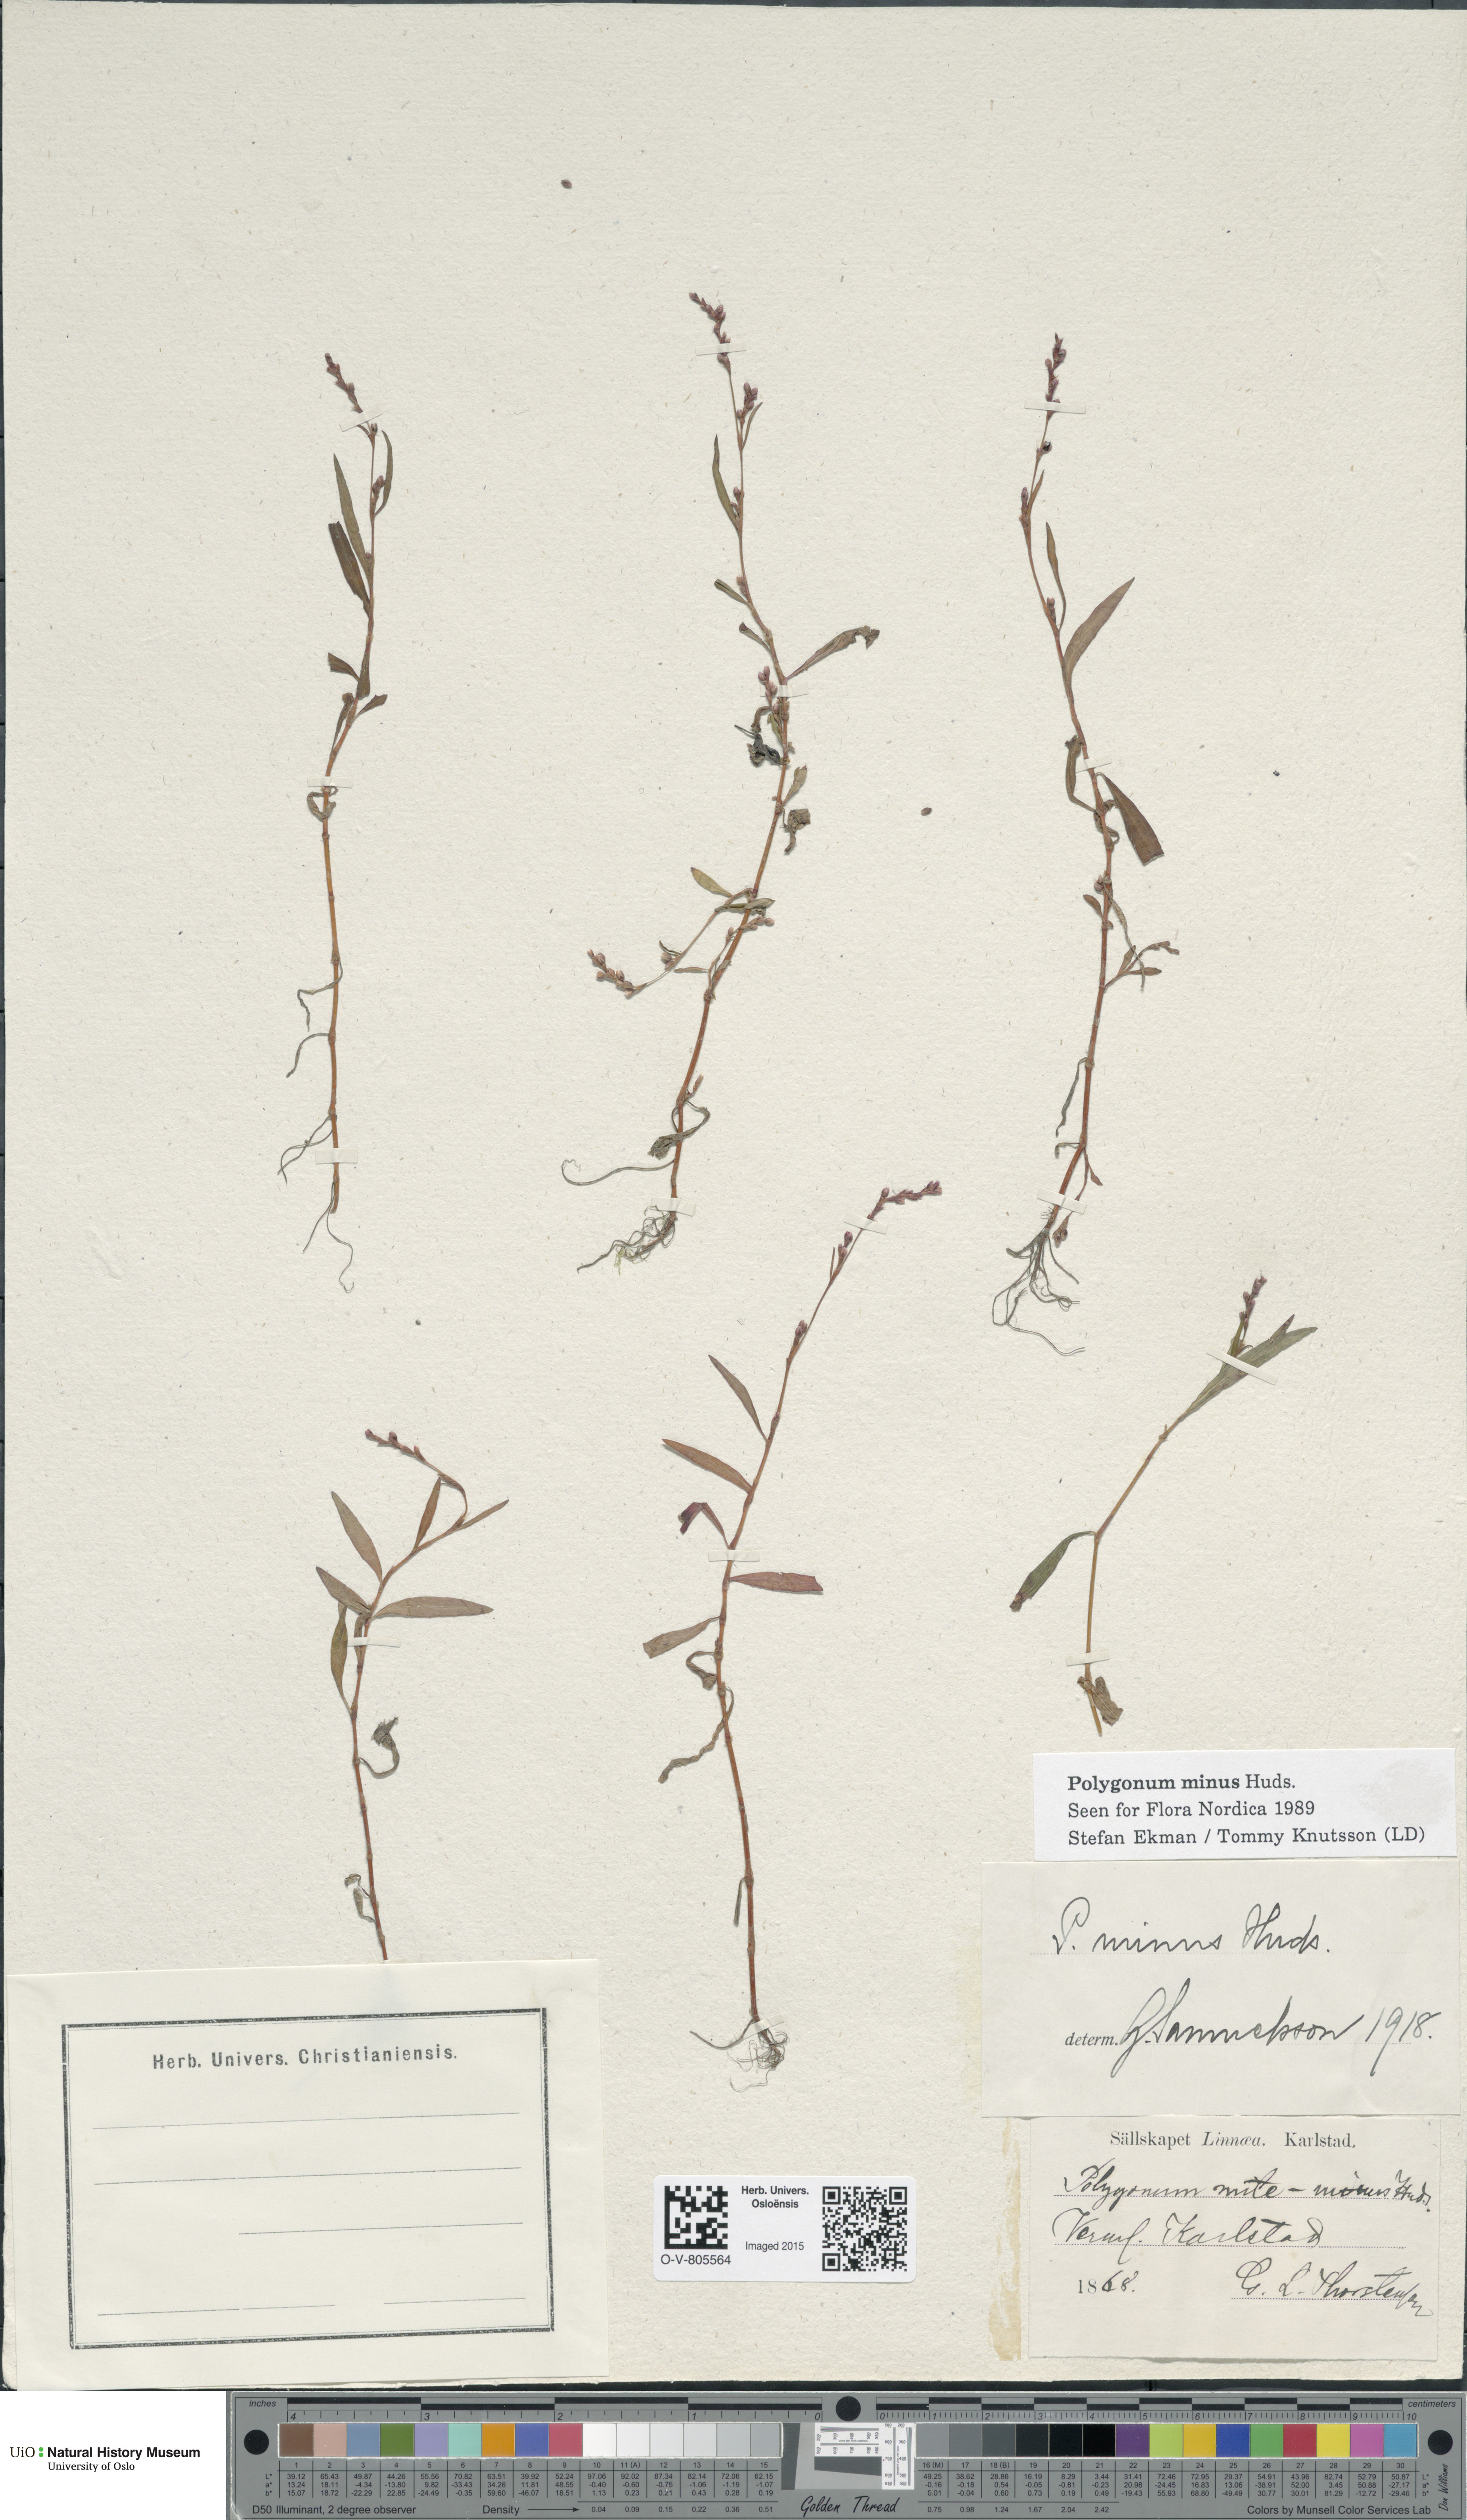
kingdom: Plantae
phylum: Tracheophyta
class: Magnoliopsida
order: Caryophyllales
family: Polygonaceae
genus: Persicaria
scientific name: Persicaria minor
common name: Small water-pepper
